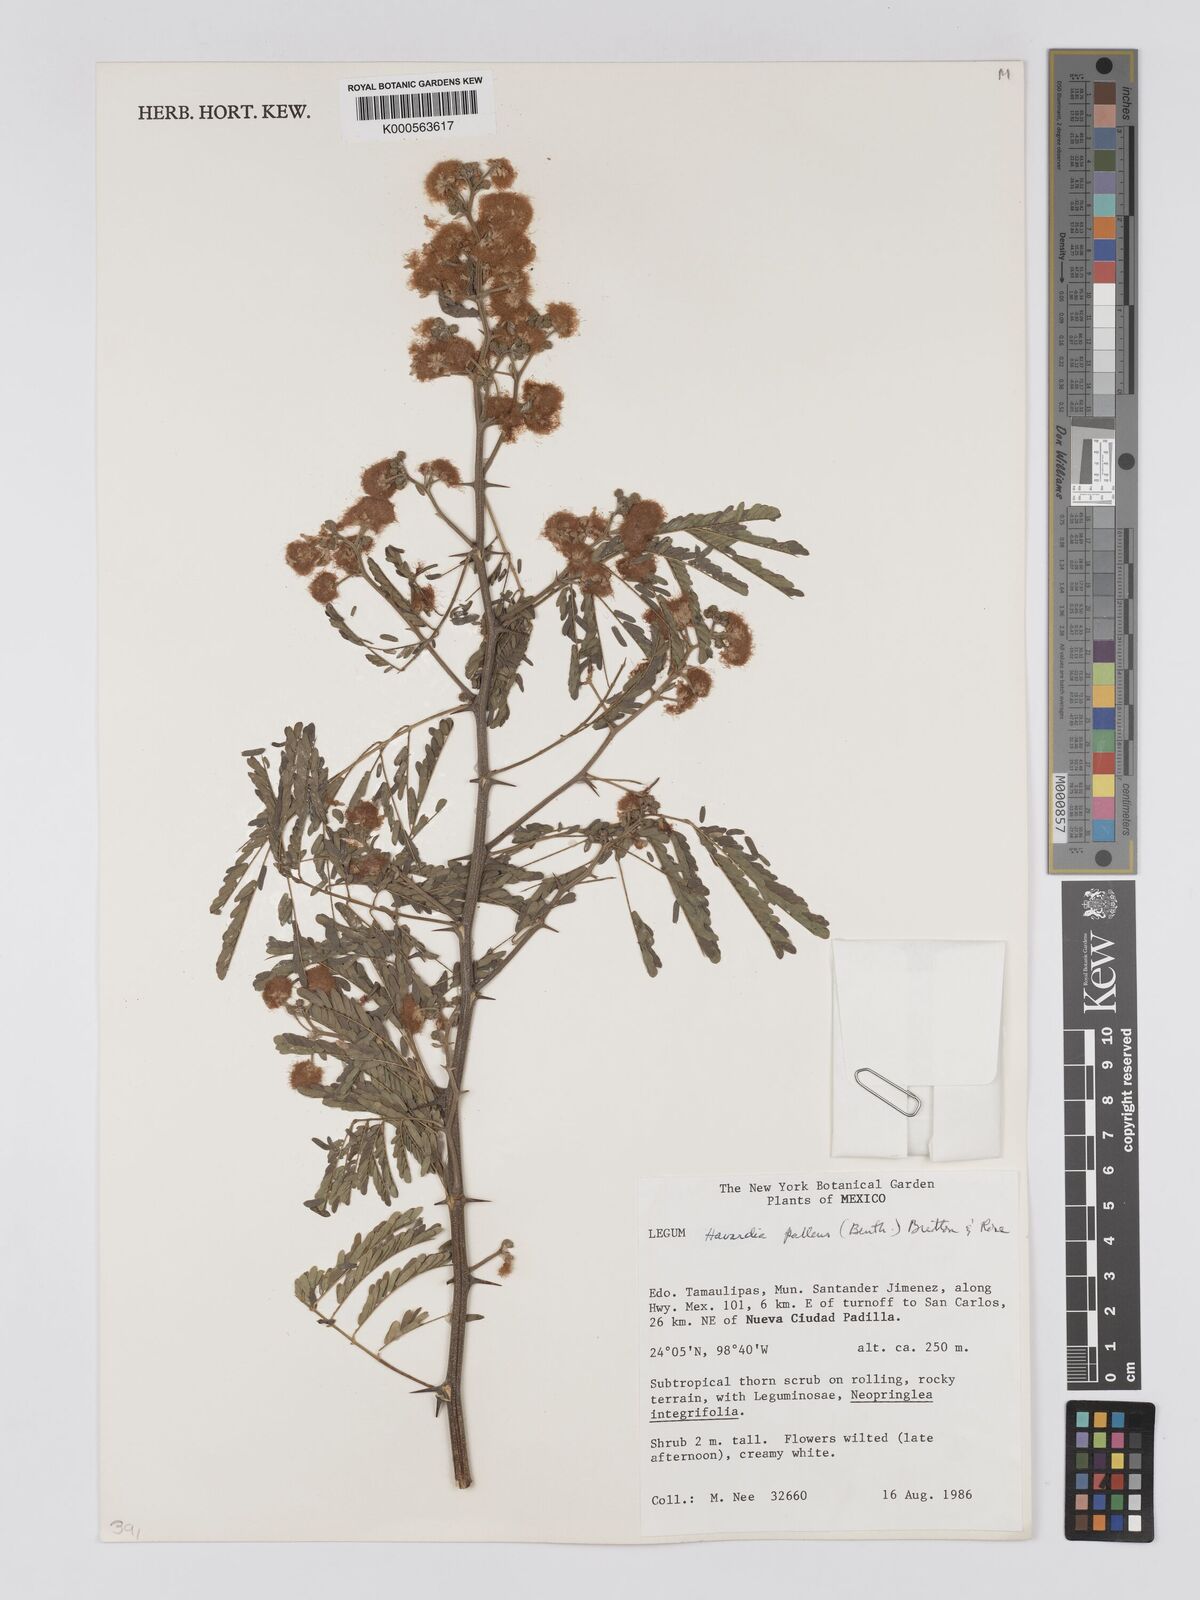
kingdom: Plantae
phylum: Tracheophyta
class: Magnoliopsida
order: Fabales
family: Fabaceae
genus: Havardia
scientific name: Havardia pallens
